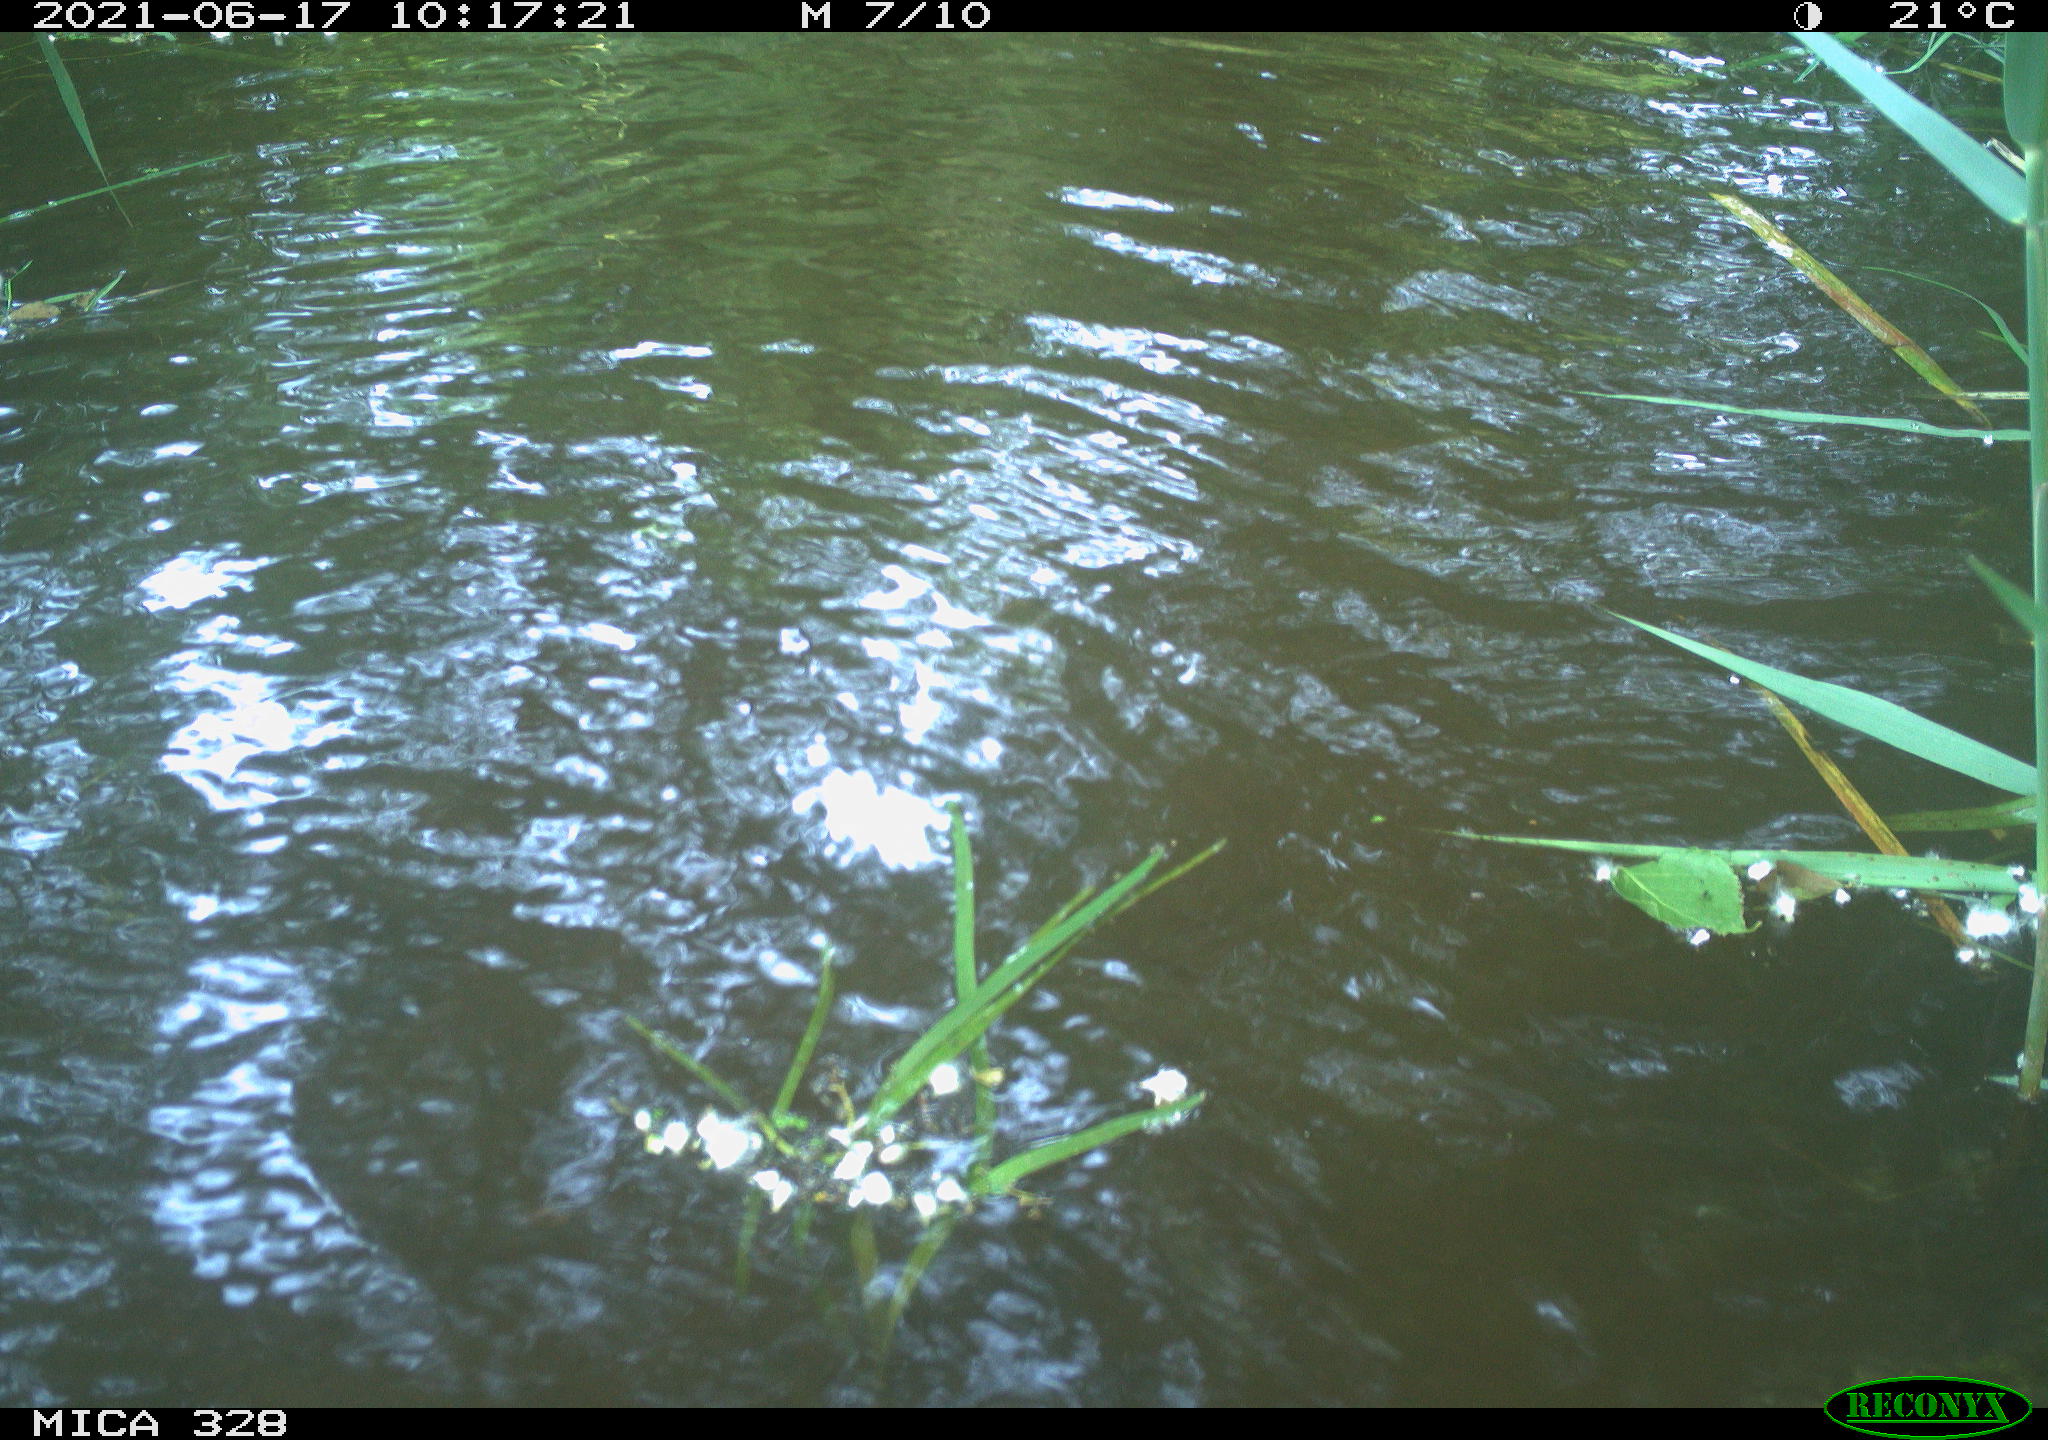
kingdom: Animalia
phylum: Chordata
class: Mammalia
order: Rodentia
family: Cricetidae
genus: Ondatra
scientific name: Ondatra zibethicus
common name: Muskrat
